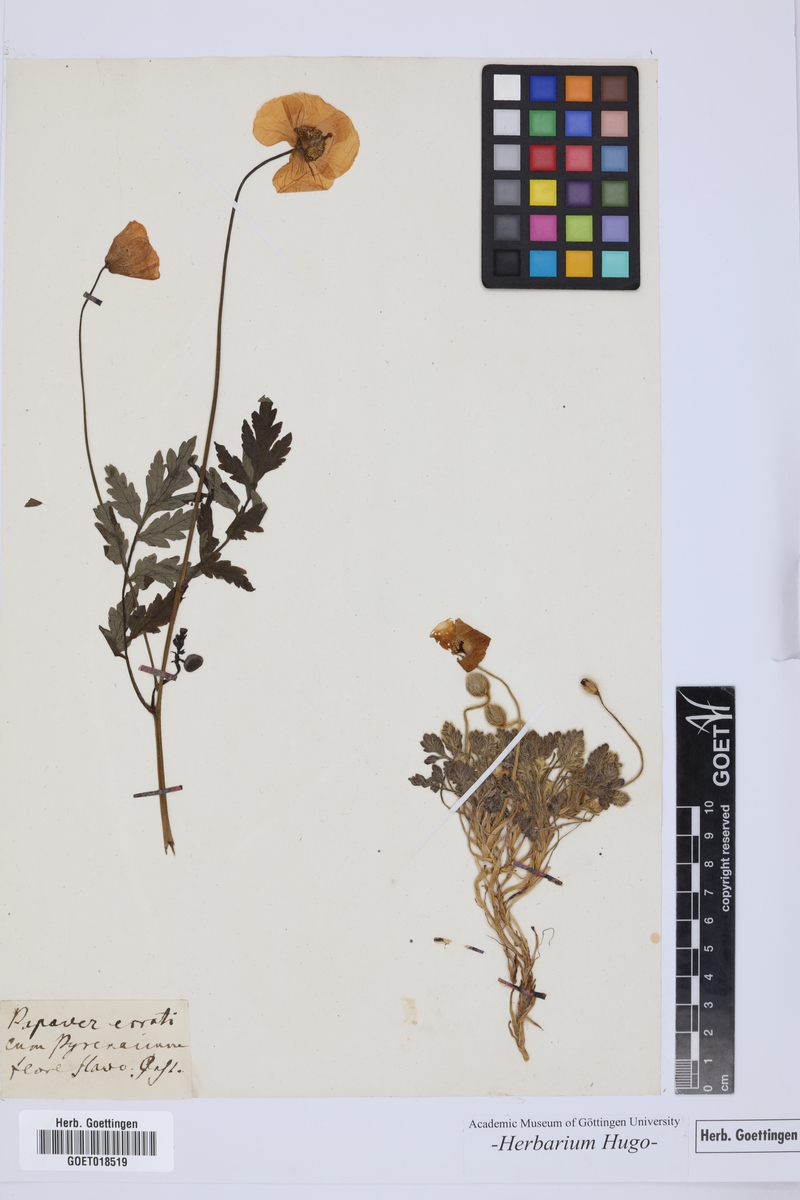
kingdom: Plantae
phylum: Tracheophyta
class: Magnoliopsida
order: Ranunculales
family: Papaveraceae
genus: Papaver
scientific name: Papaver cambricum
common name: Poppy
